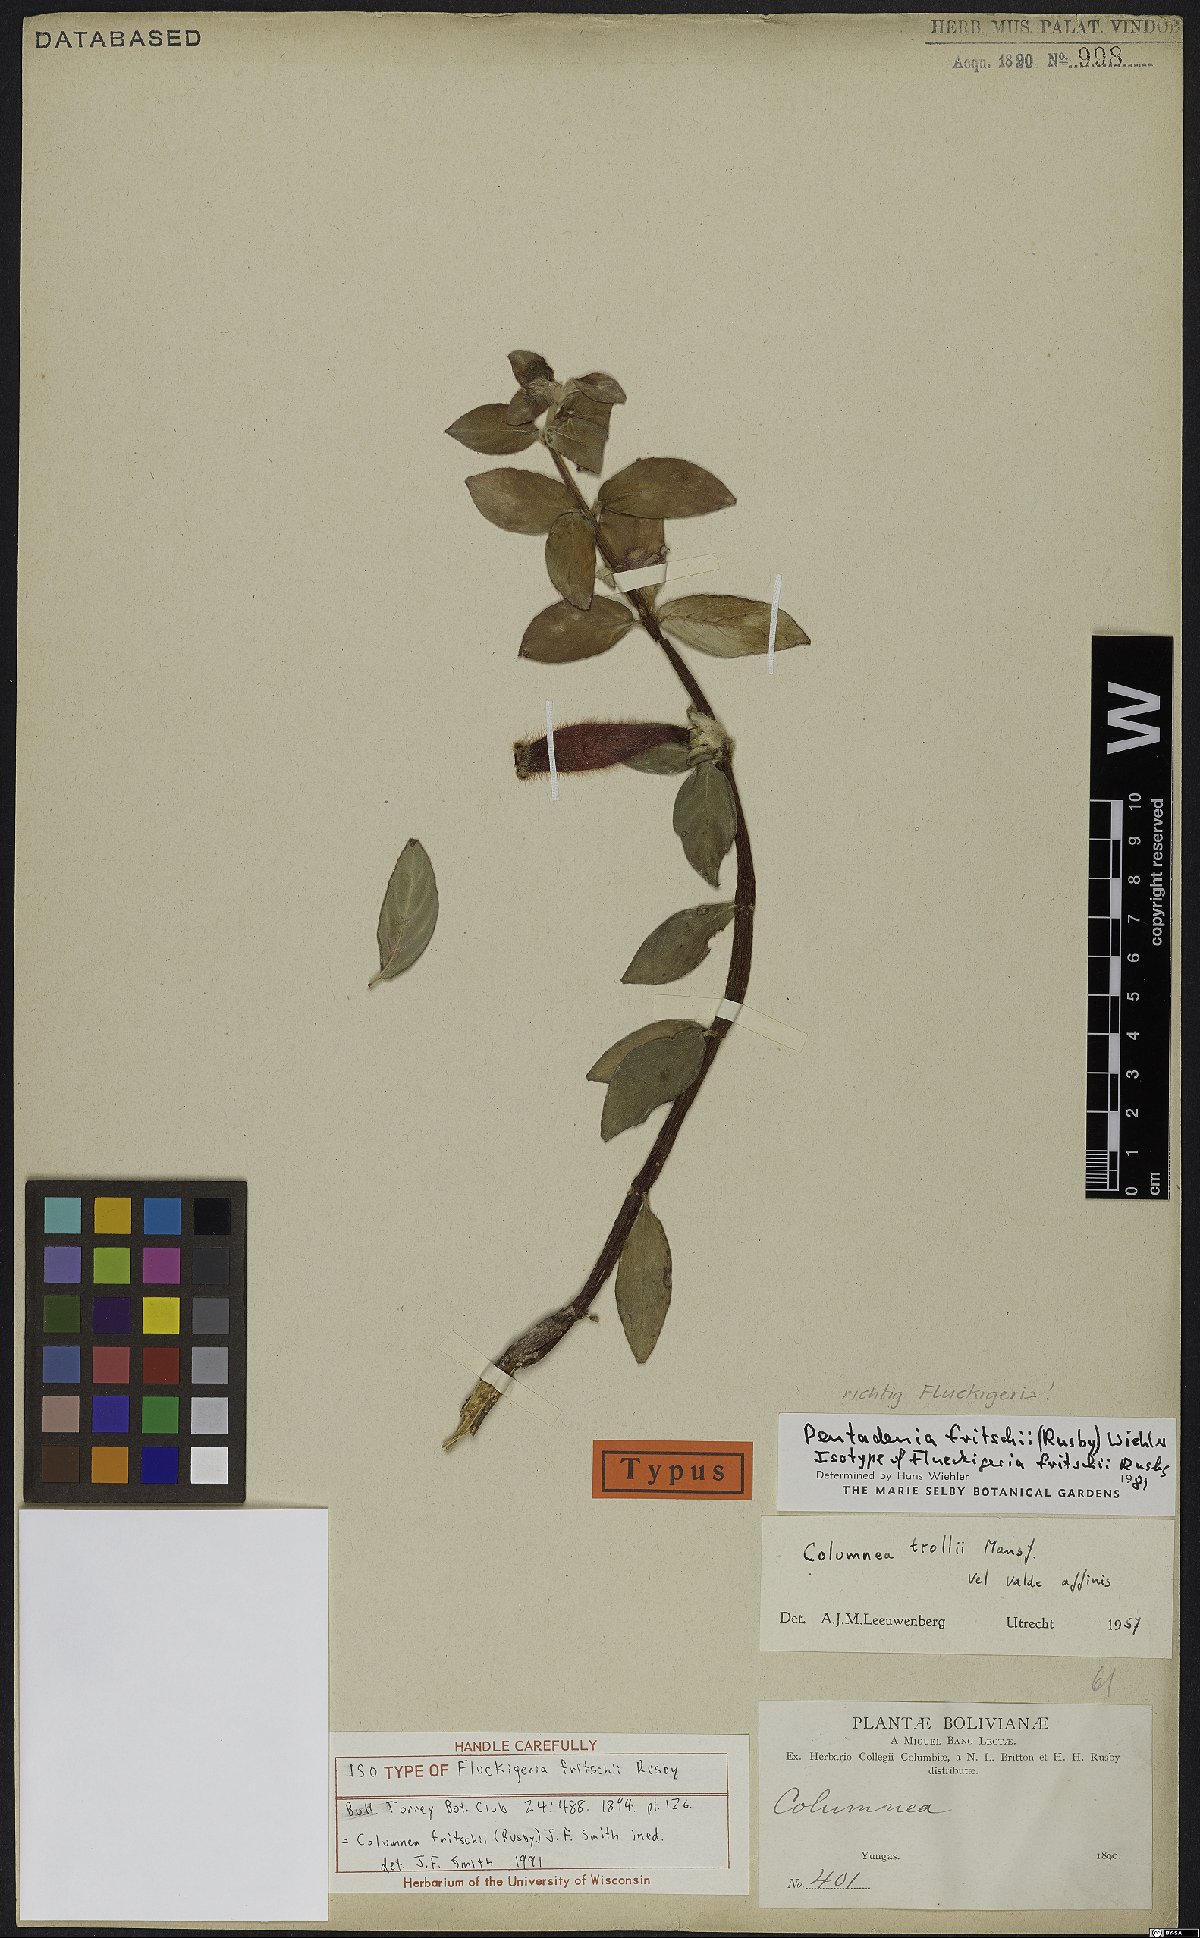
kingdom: Plantae
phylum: Tracheophyta
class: Magnoliopsida
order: Lamiales
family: Gesneriaceae
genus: Columnea
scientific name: Columnea fritschii
